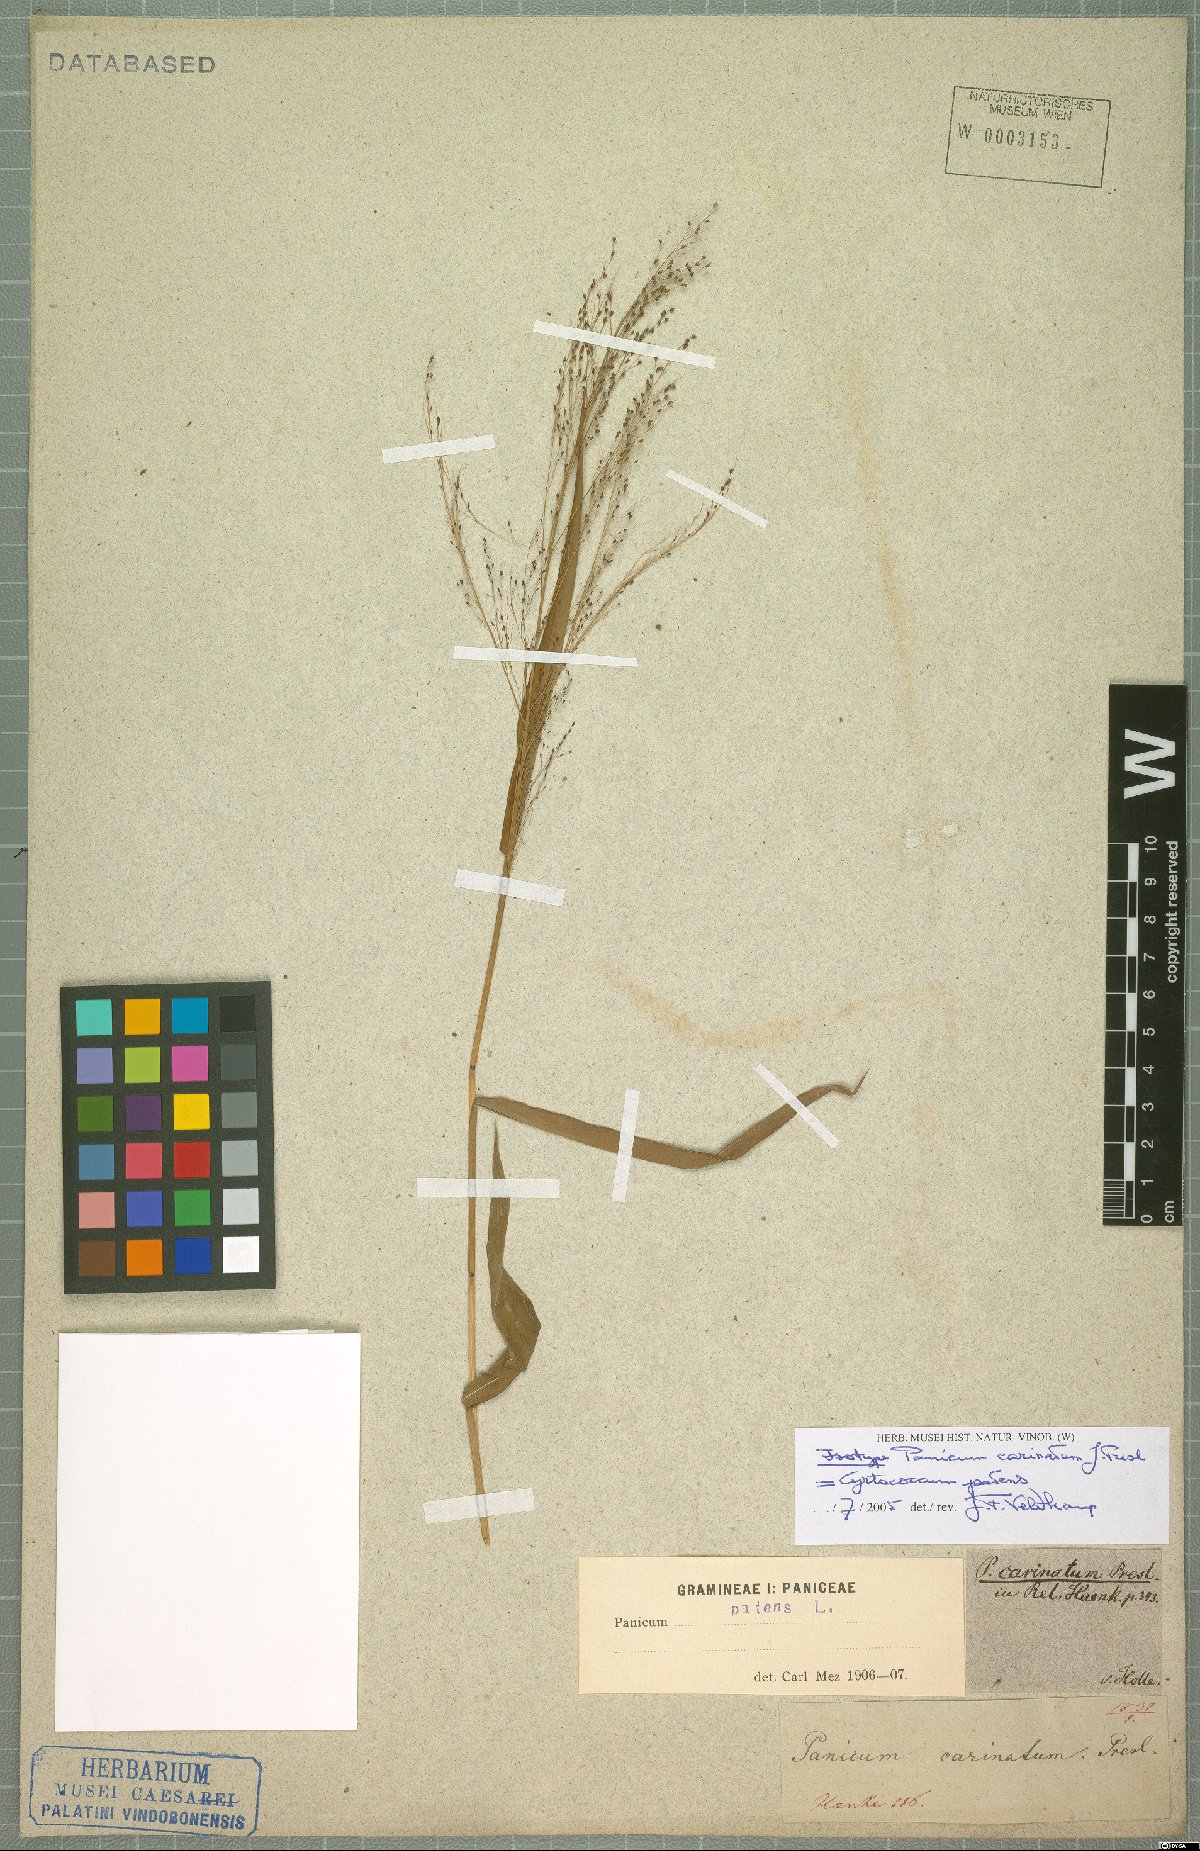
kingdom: Plantae
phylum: Tracheophyta
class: Liliopsida
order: Poales
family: Poaceae
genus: Cyrtococcum
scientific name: Cyrtococcum patens
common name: Broad-leaved bowgrass
